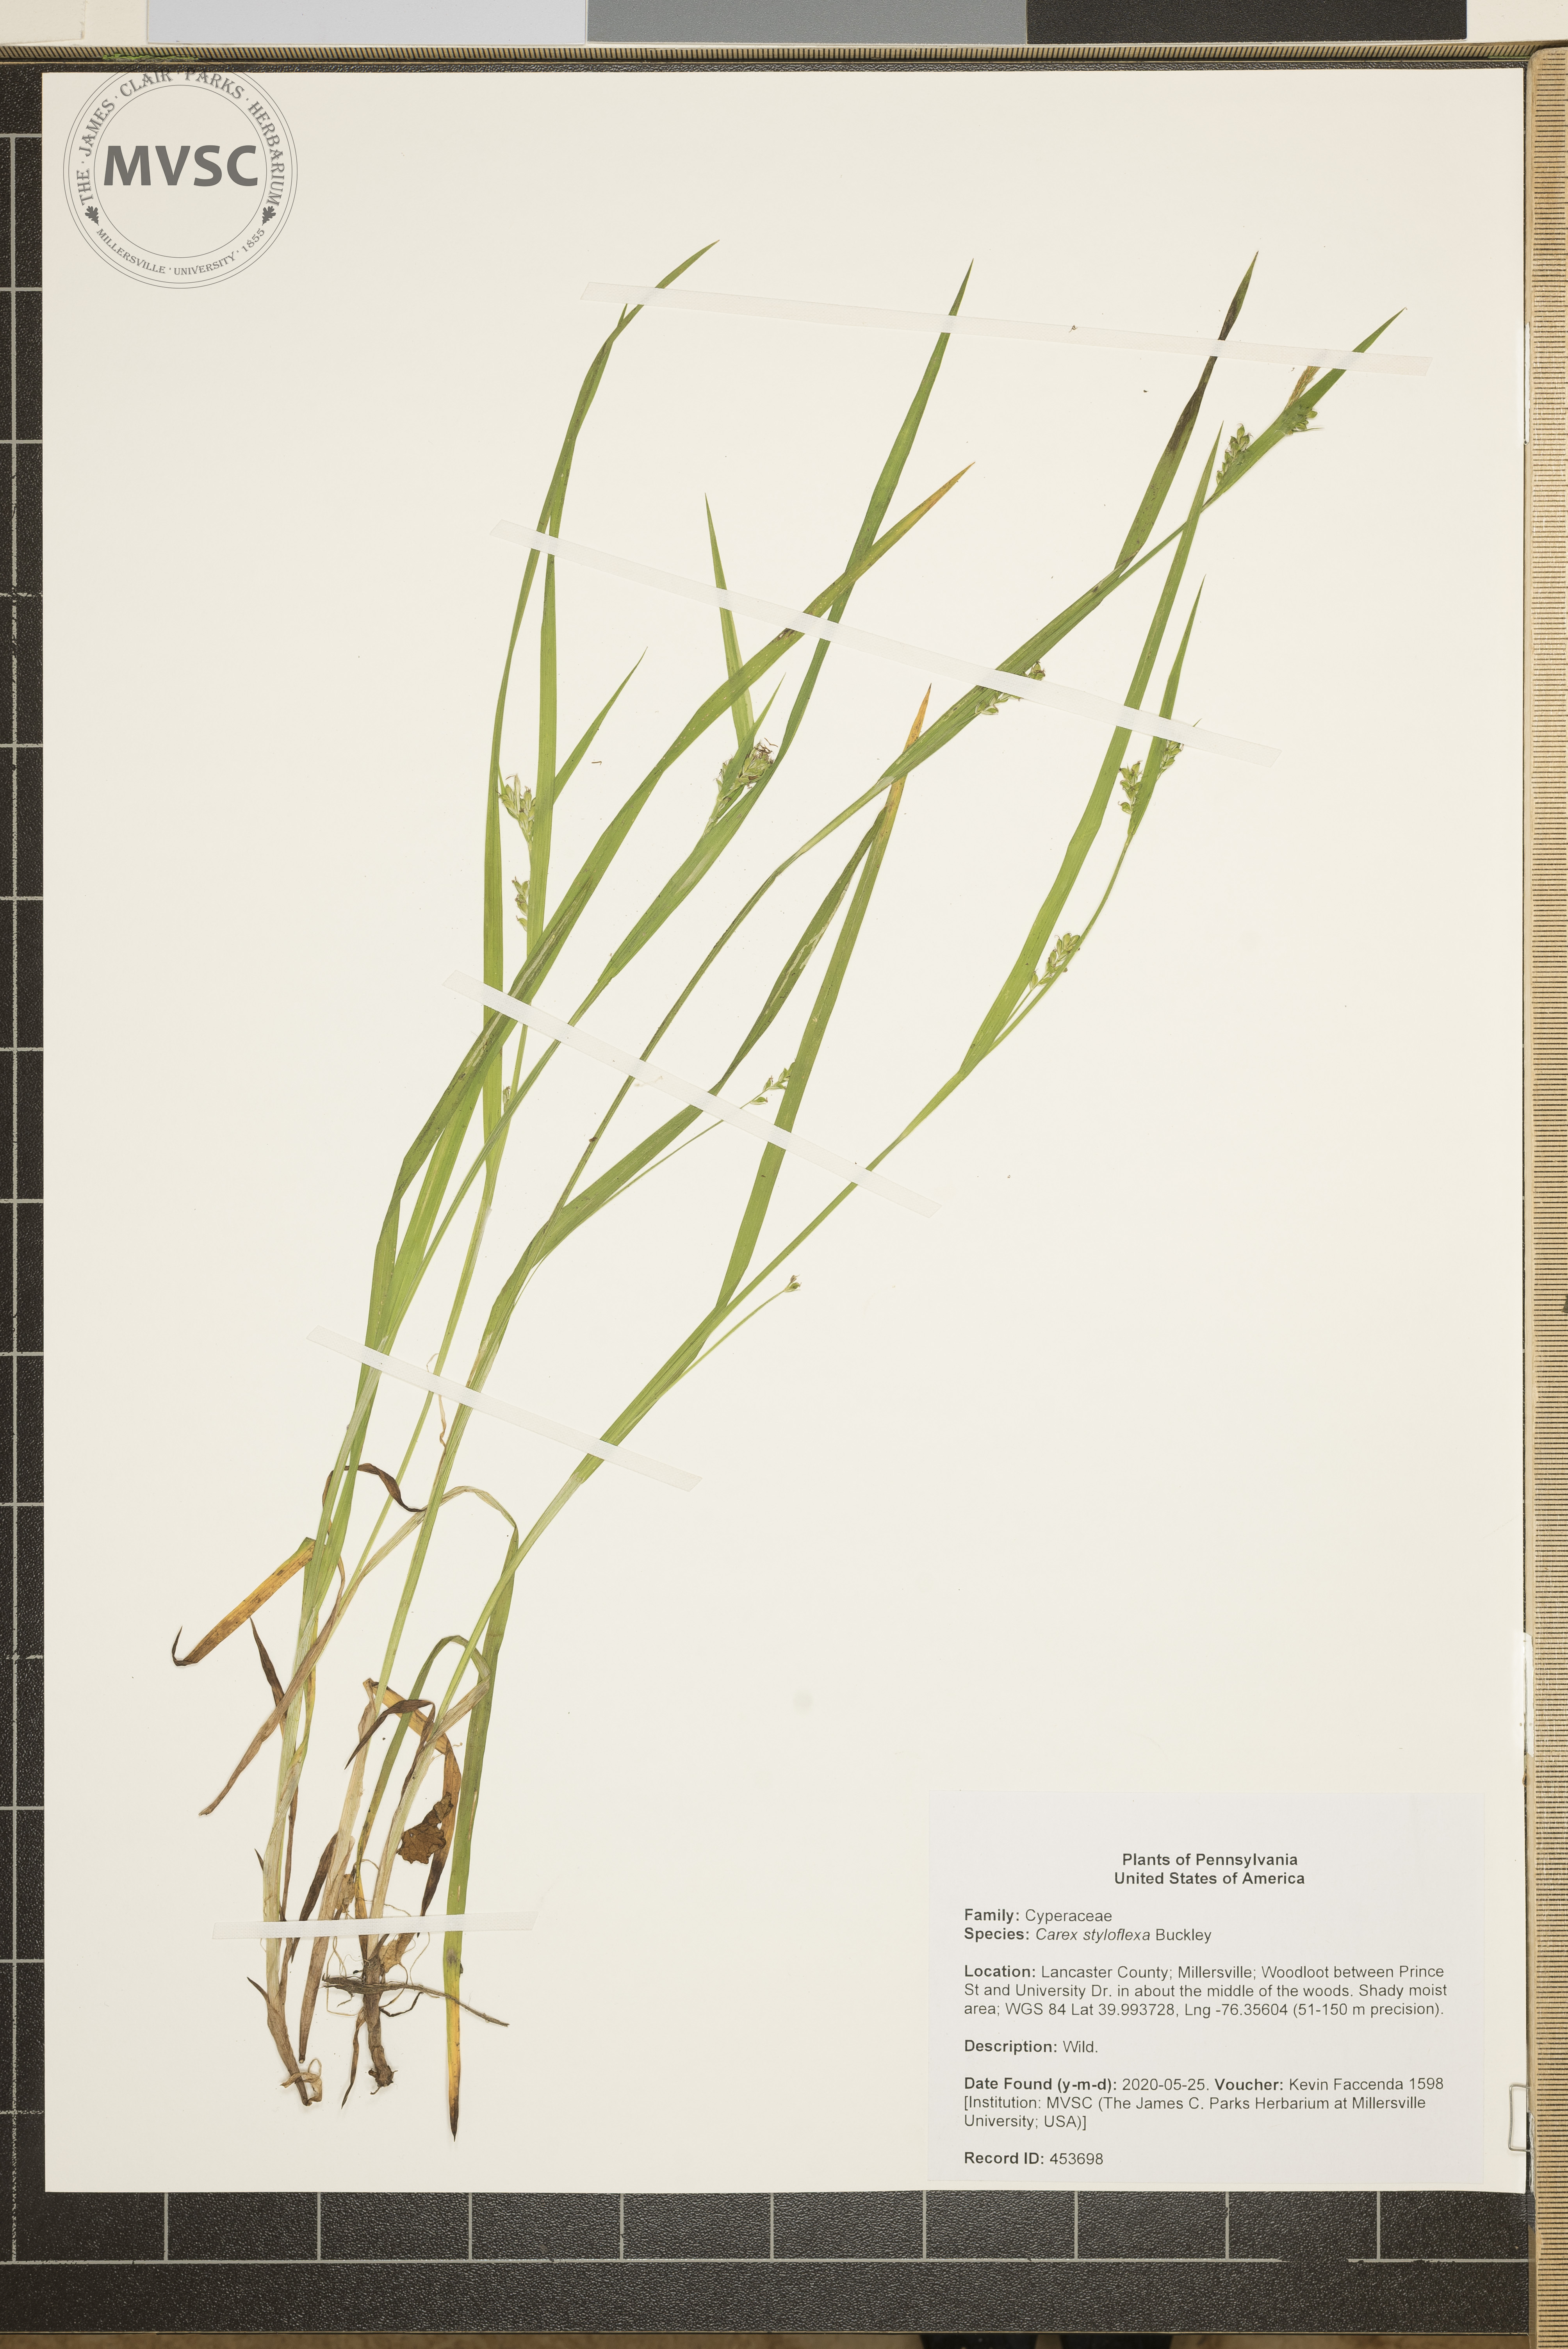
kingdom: Plantae
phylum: Tracheophyta
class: Liliopsida
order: Poales
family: Cyperaceae
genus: Carex
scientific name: Carex styloflexa
